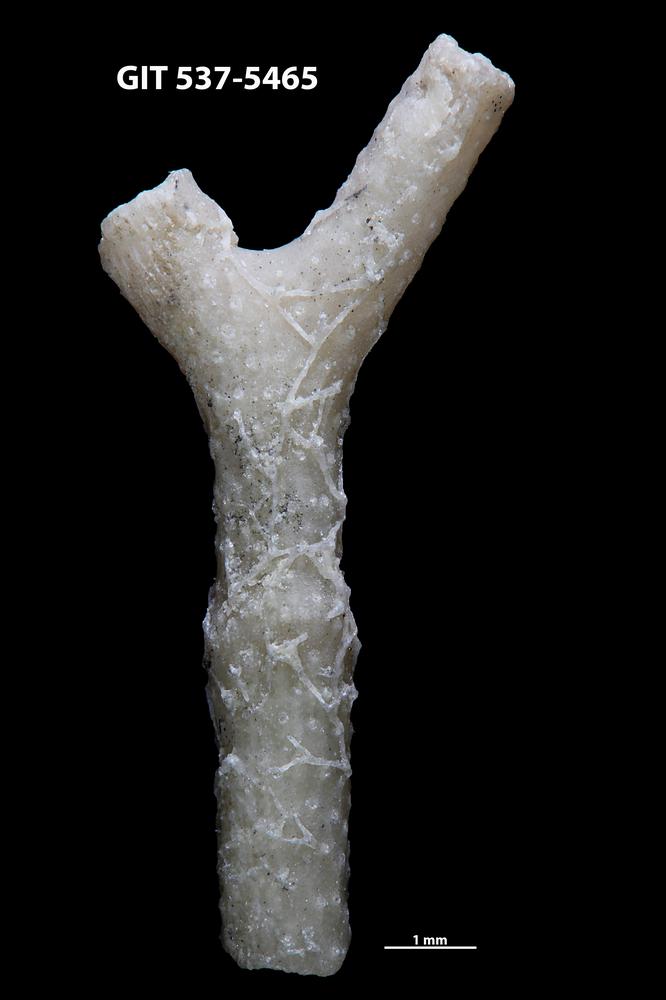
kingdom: Animalia
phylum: Bryozoa
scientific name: Bryozoa
